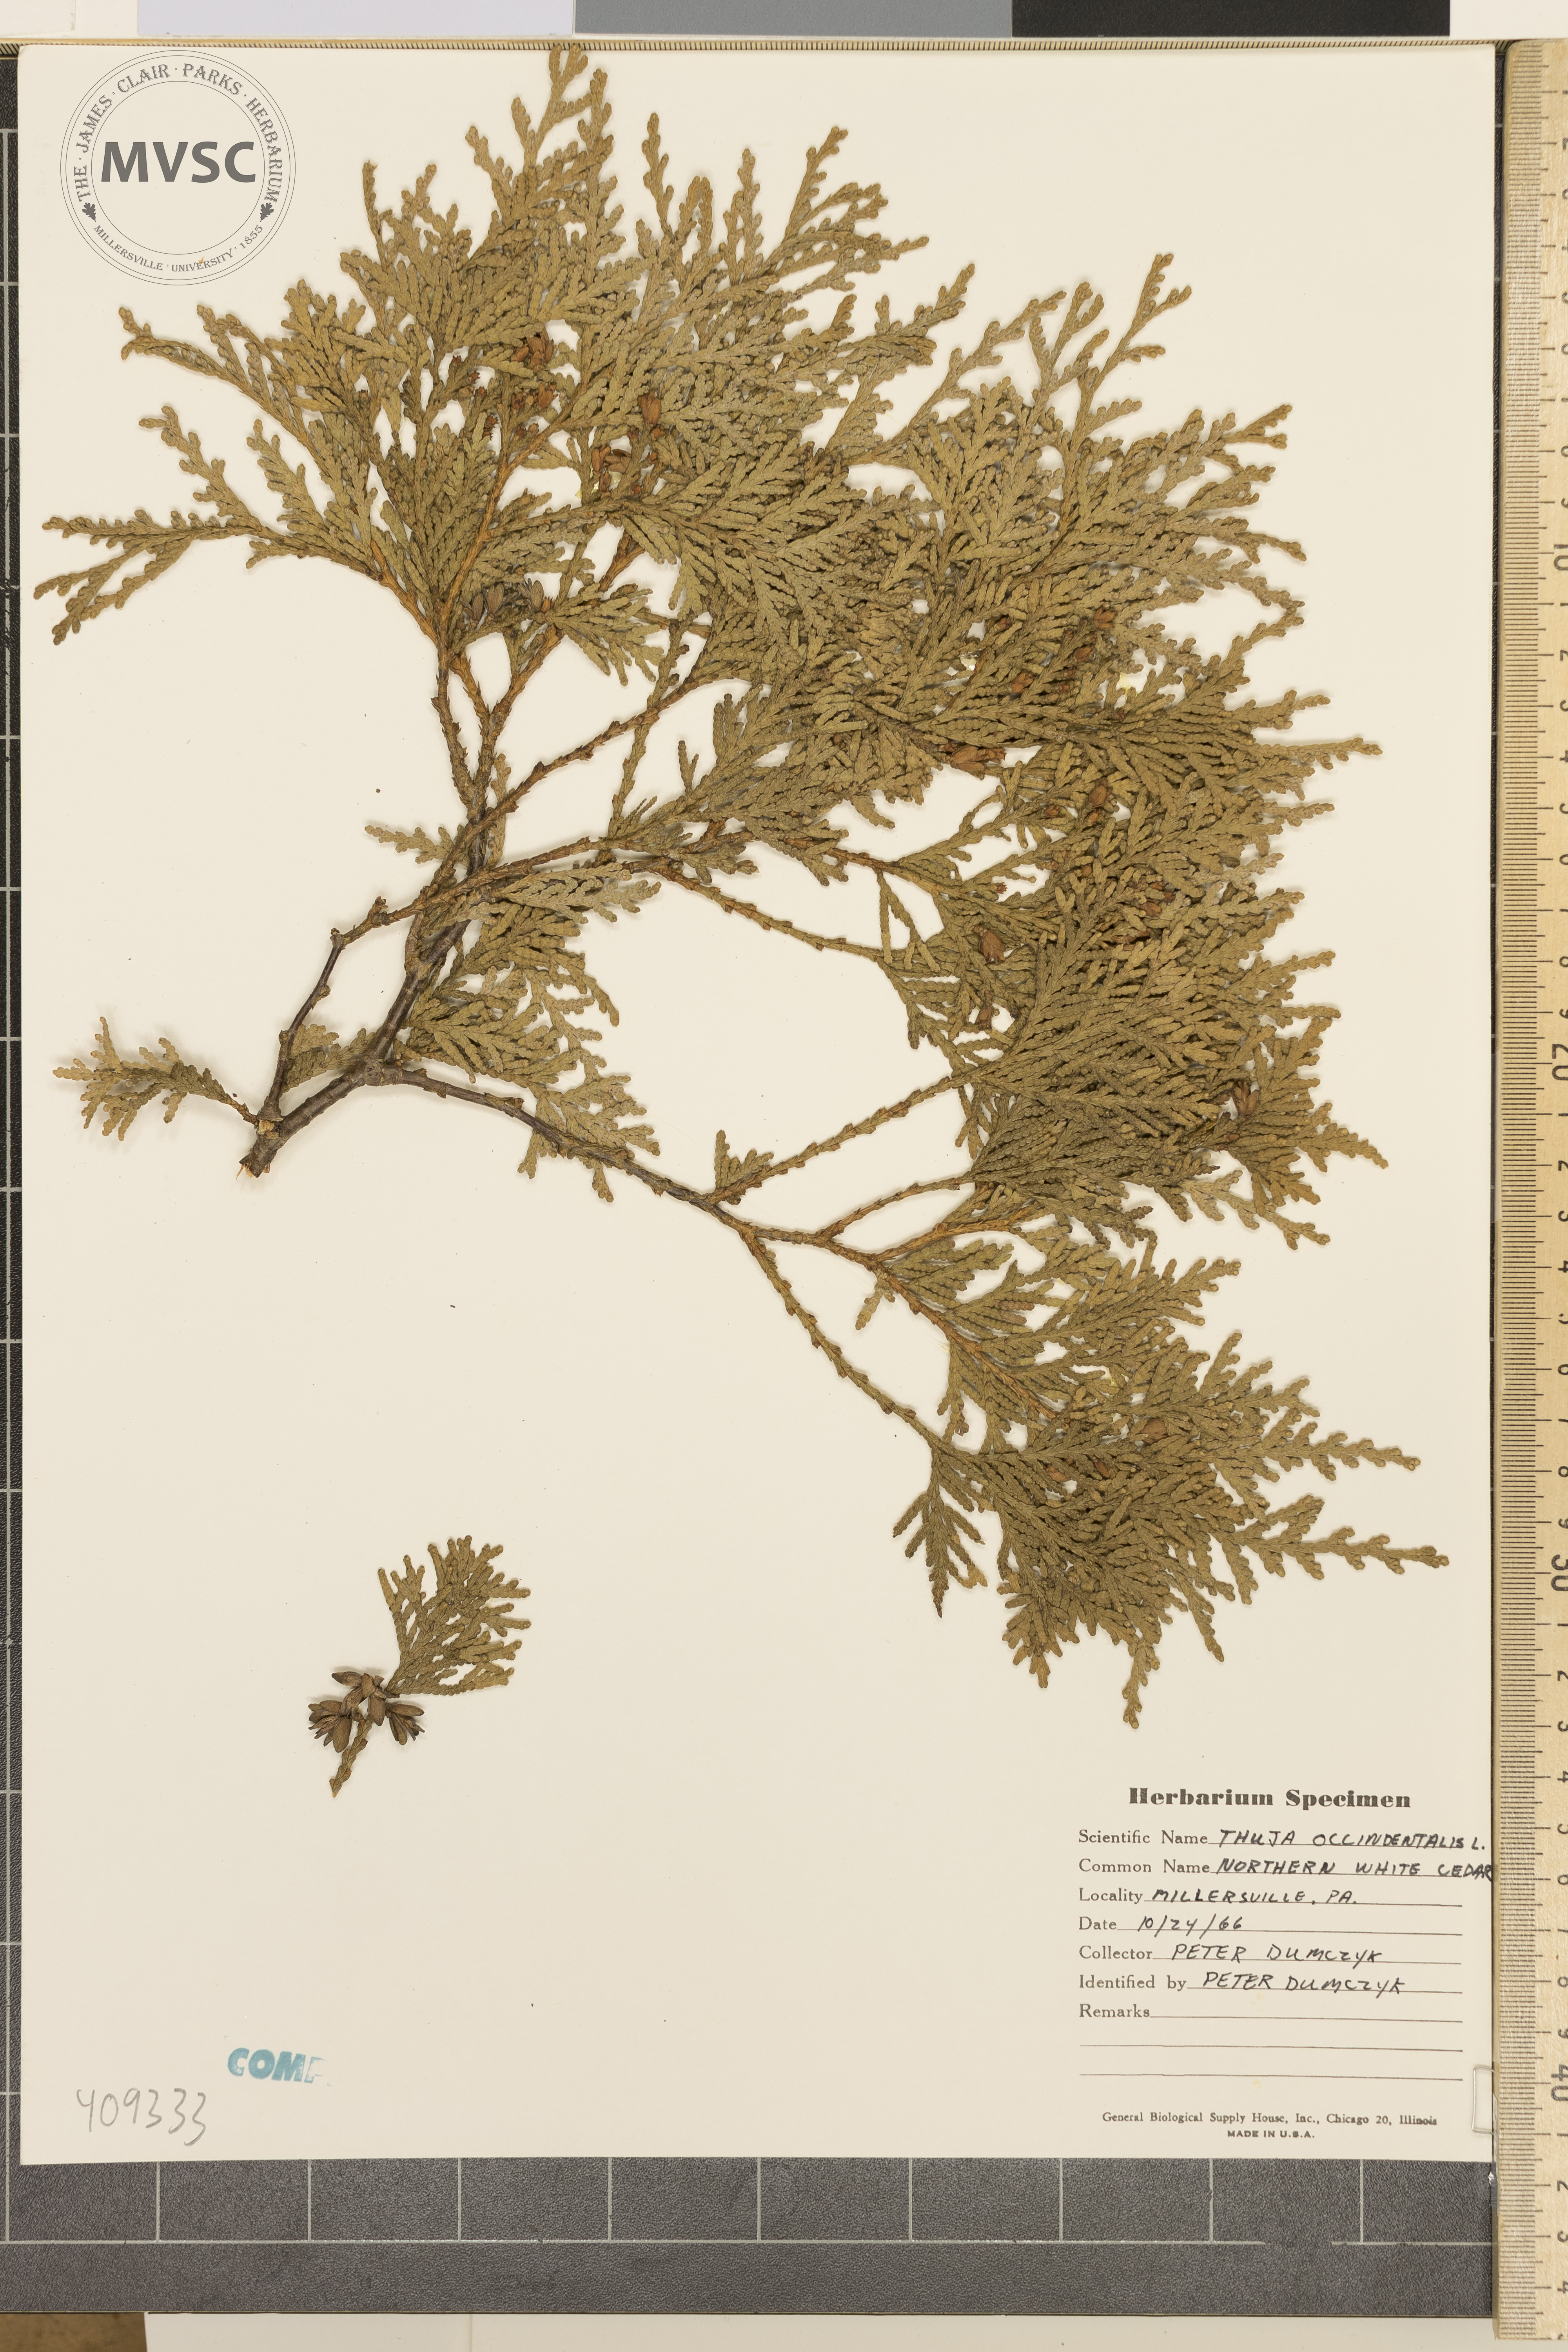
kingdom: Plantae
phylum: Tracheophyta
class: Pinopsida
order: Pinales
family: Cupressaceae
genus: Thuja
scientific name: Thuja occidentalis
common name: Northern white-cedar
